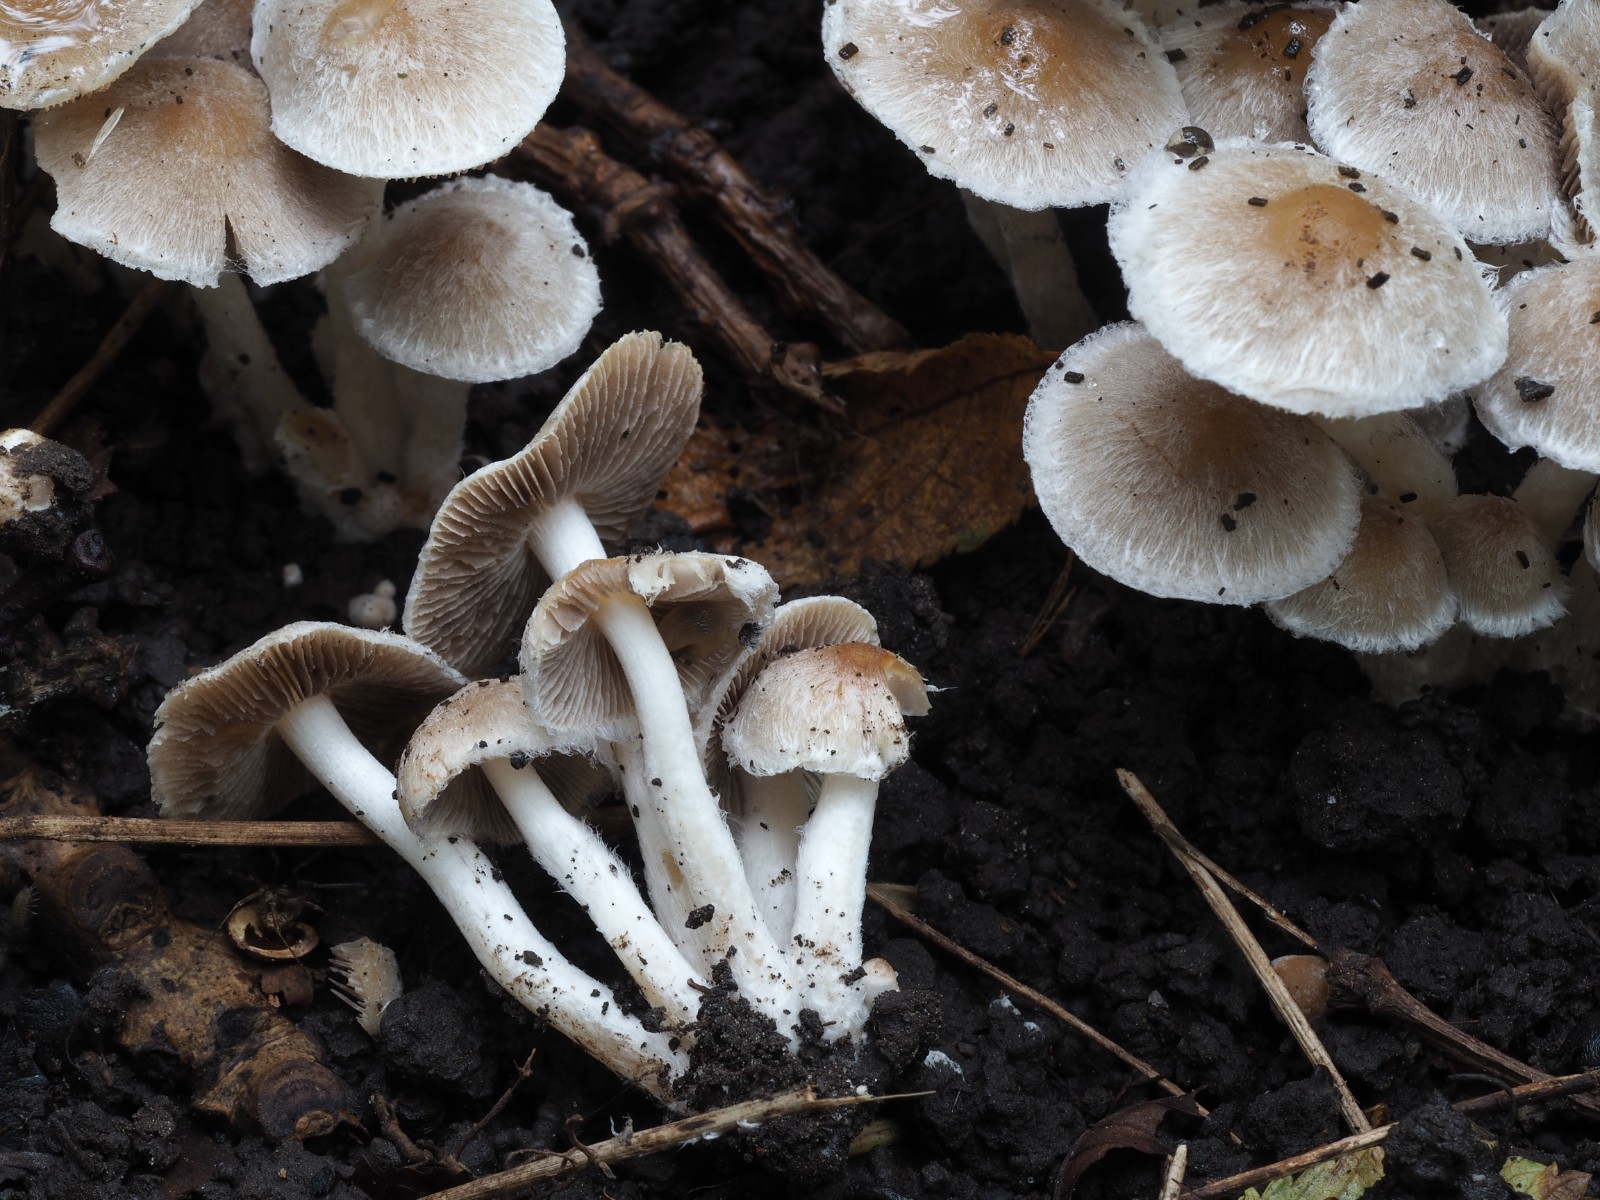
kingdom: Fungi
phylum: Basidiomycota
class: Agaricomycetes
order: Agaricales
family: Psathyrellaceae
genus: Coprinopsis
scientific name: Coprinopsis pannucioides
